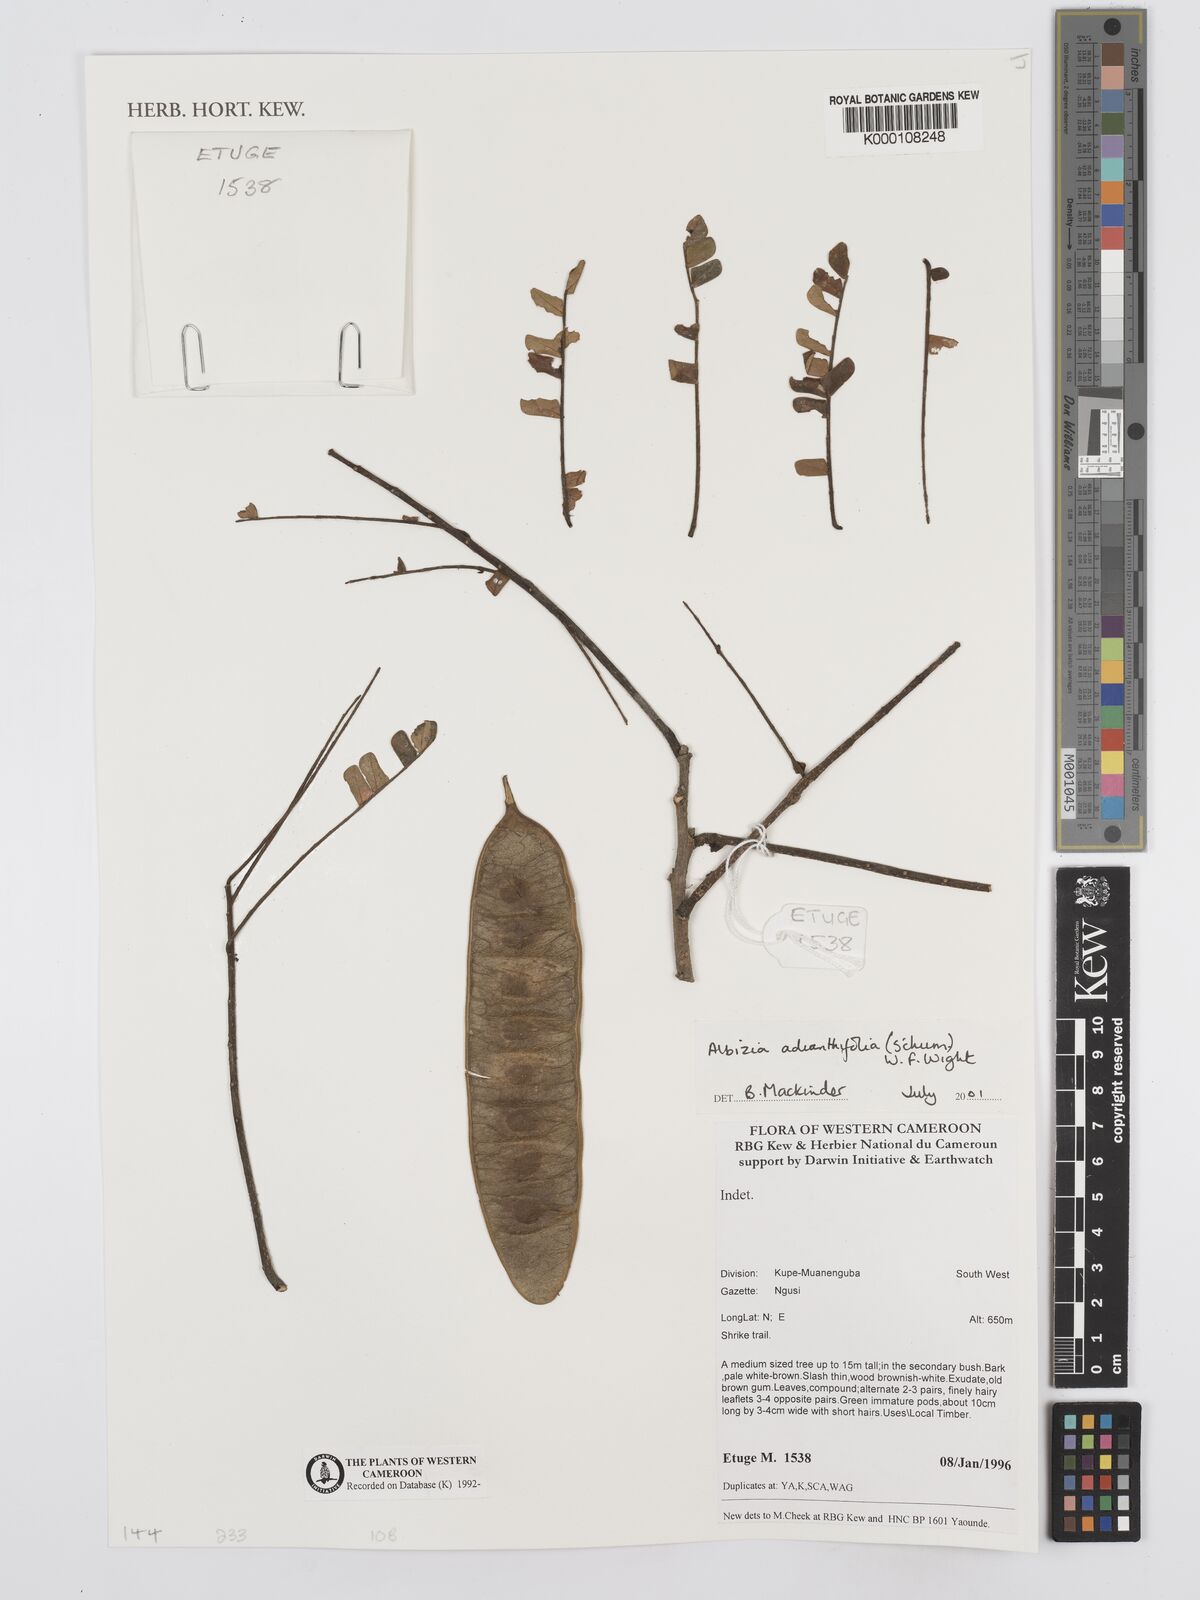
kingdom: Plantae
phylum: Tracheophyta
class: Magnoliopsida
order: Fabales
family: Fabaceae
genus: Albizia
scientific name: Albizia adianthifolia
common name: West african albizia
